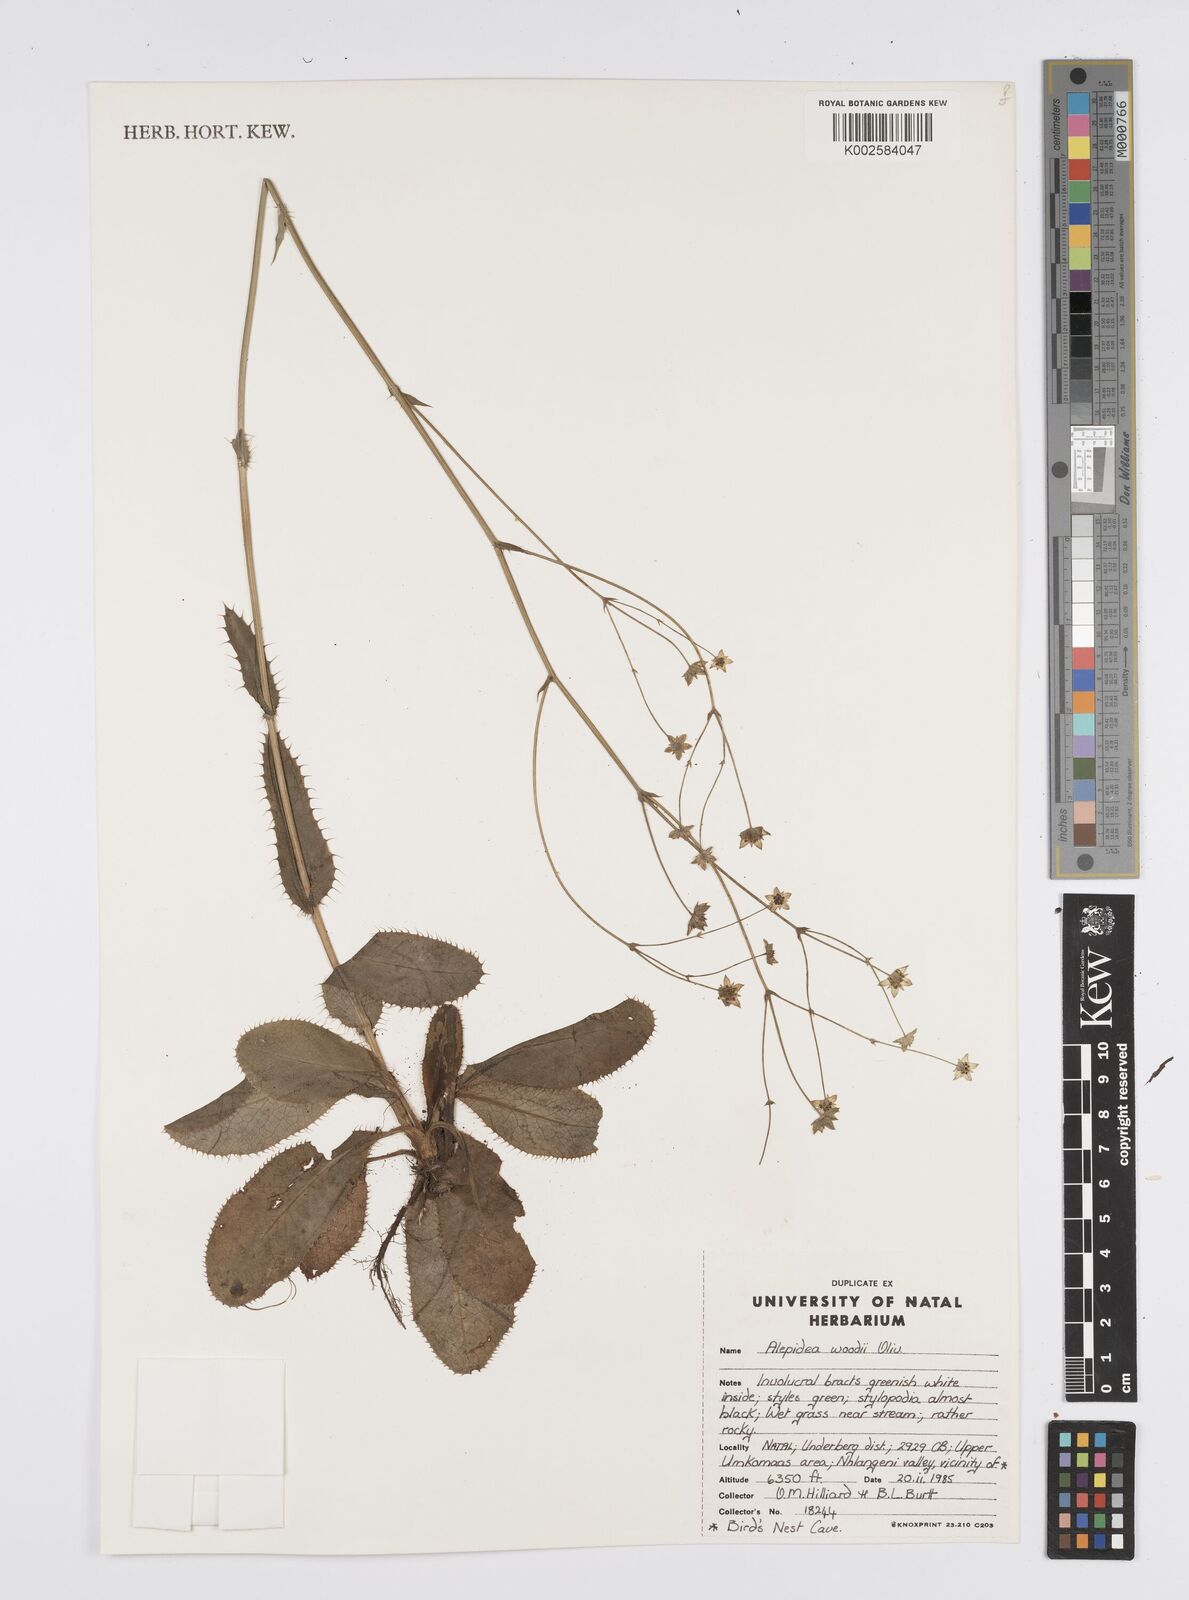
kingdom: Plantae
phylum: Tracheophyta
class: Magnoliopsida
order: Apiales
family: Apiaceae
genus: Alepidea
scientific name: Alepidea woodii
